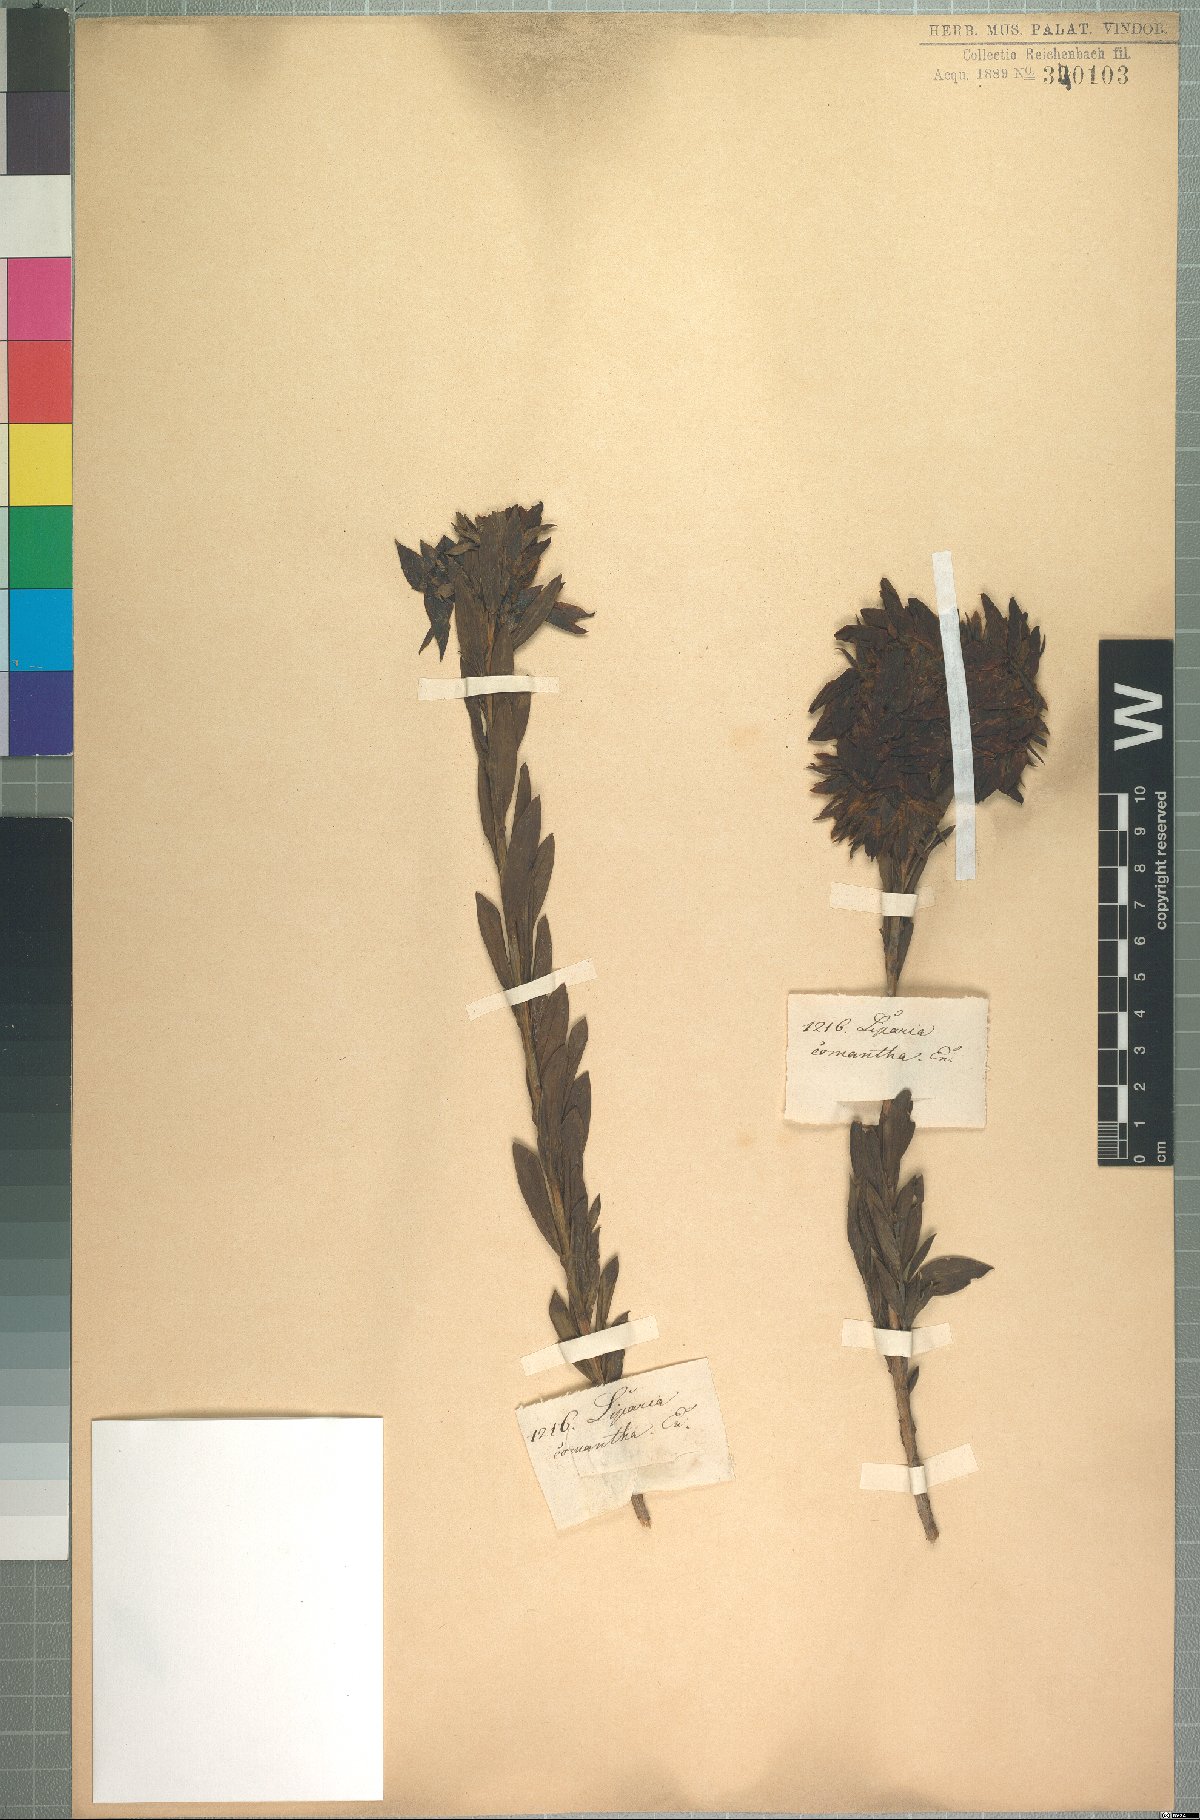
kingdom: Plantae
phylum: Tracheophyta
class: Magnoliopsida
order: Fabales
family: Fabaceae
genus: Liparia
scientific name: Liparia splendens
